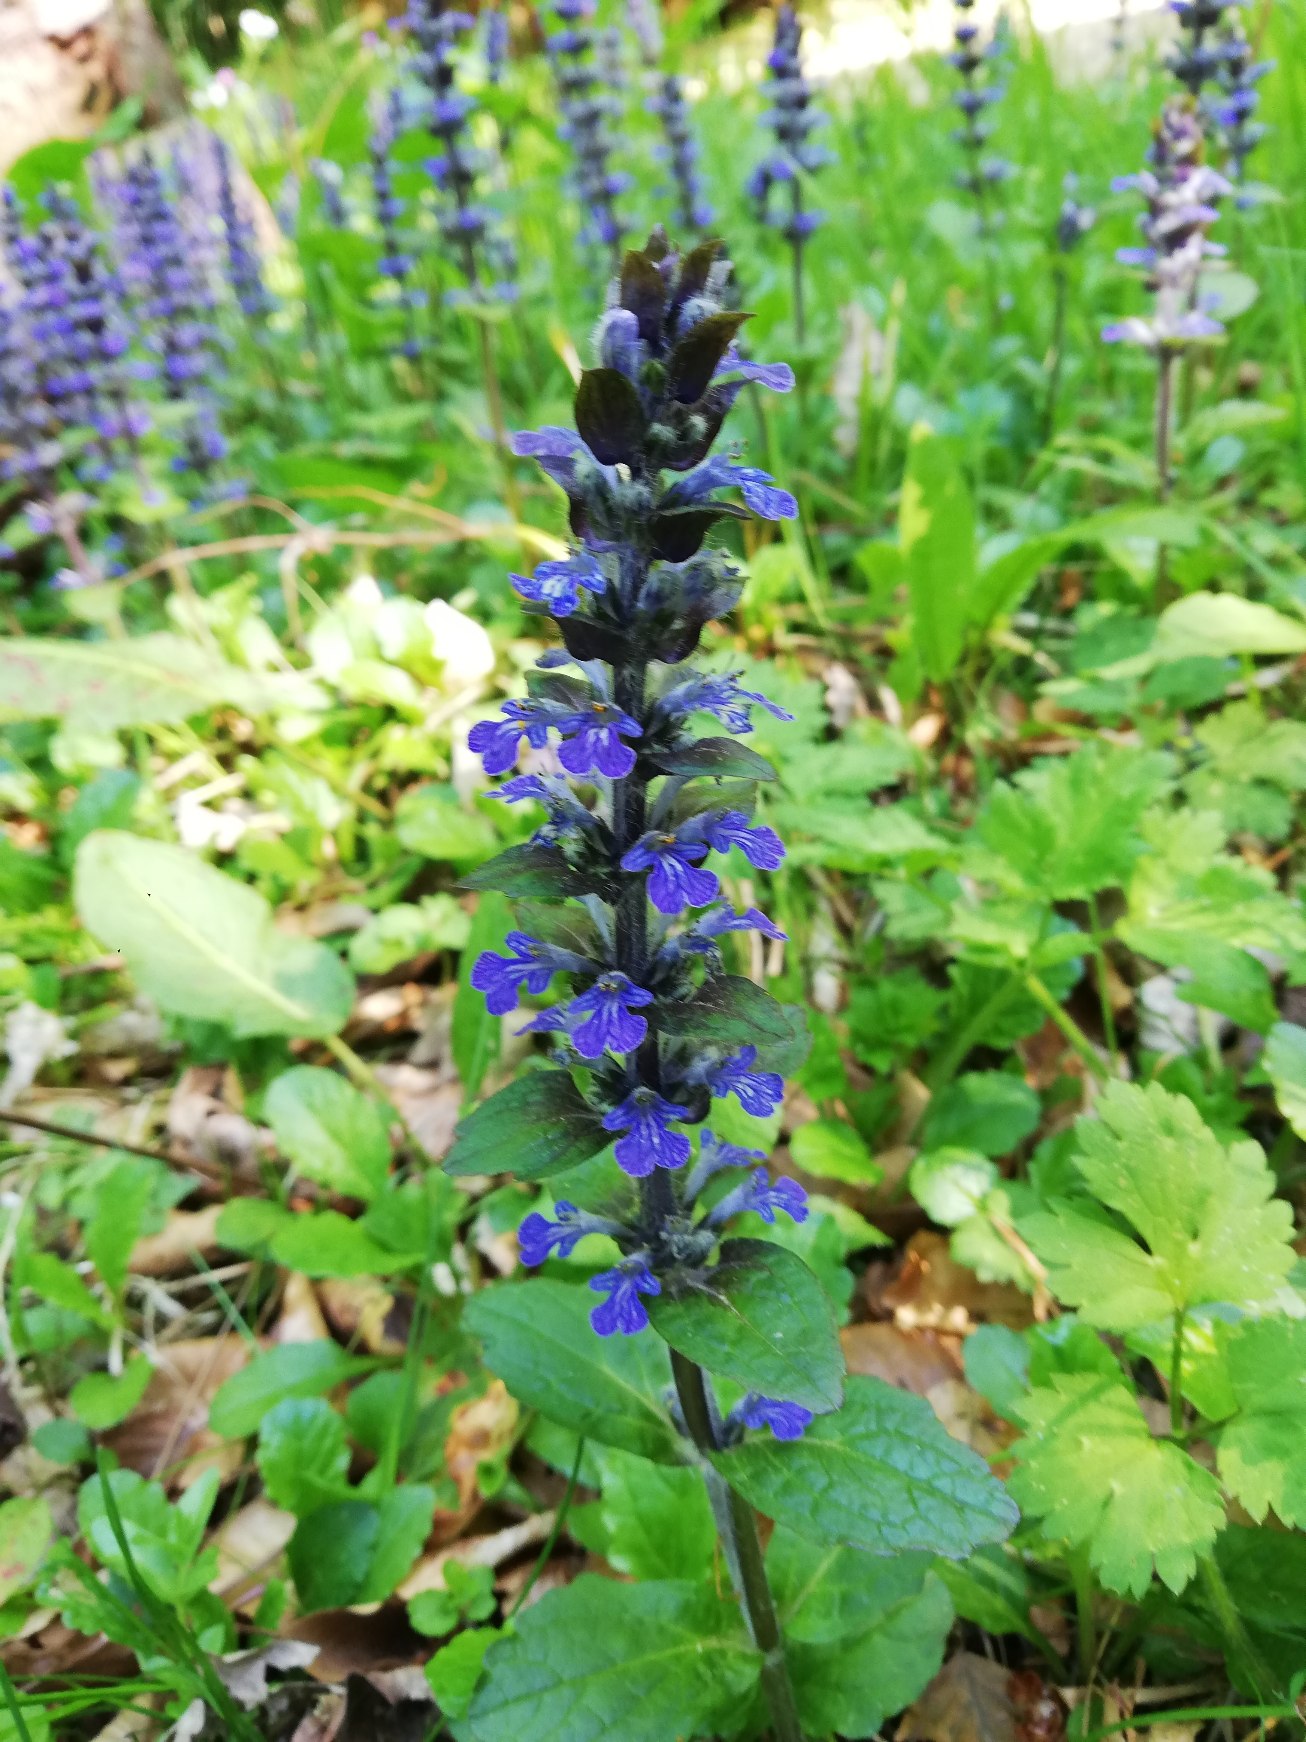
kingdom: Plantae
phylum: Tracheophyta
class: Magnoliopsida
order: Lamiales
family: Lamiaceae
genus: Ajuga
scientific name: Ajuga reptans
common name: Krybende læbeløs
